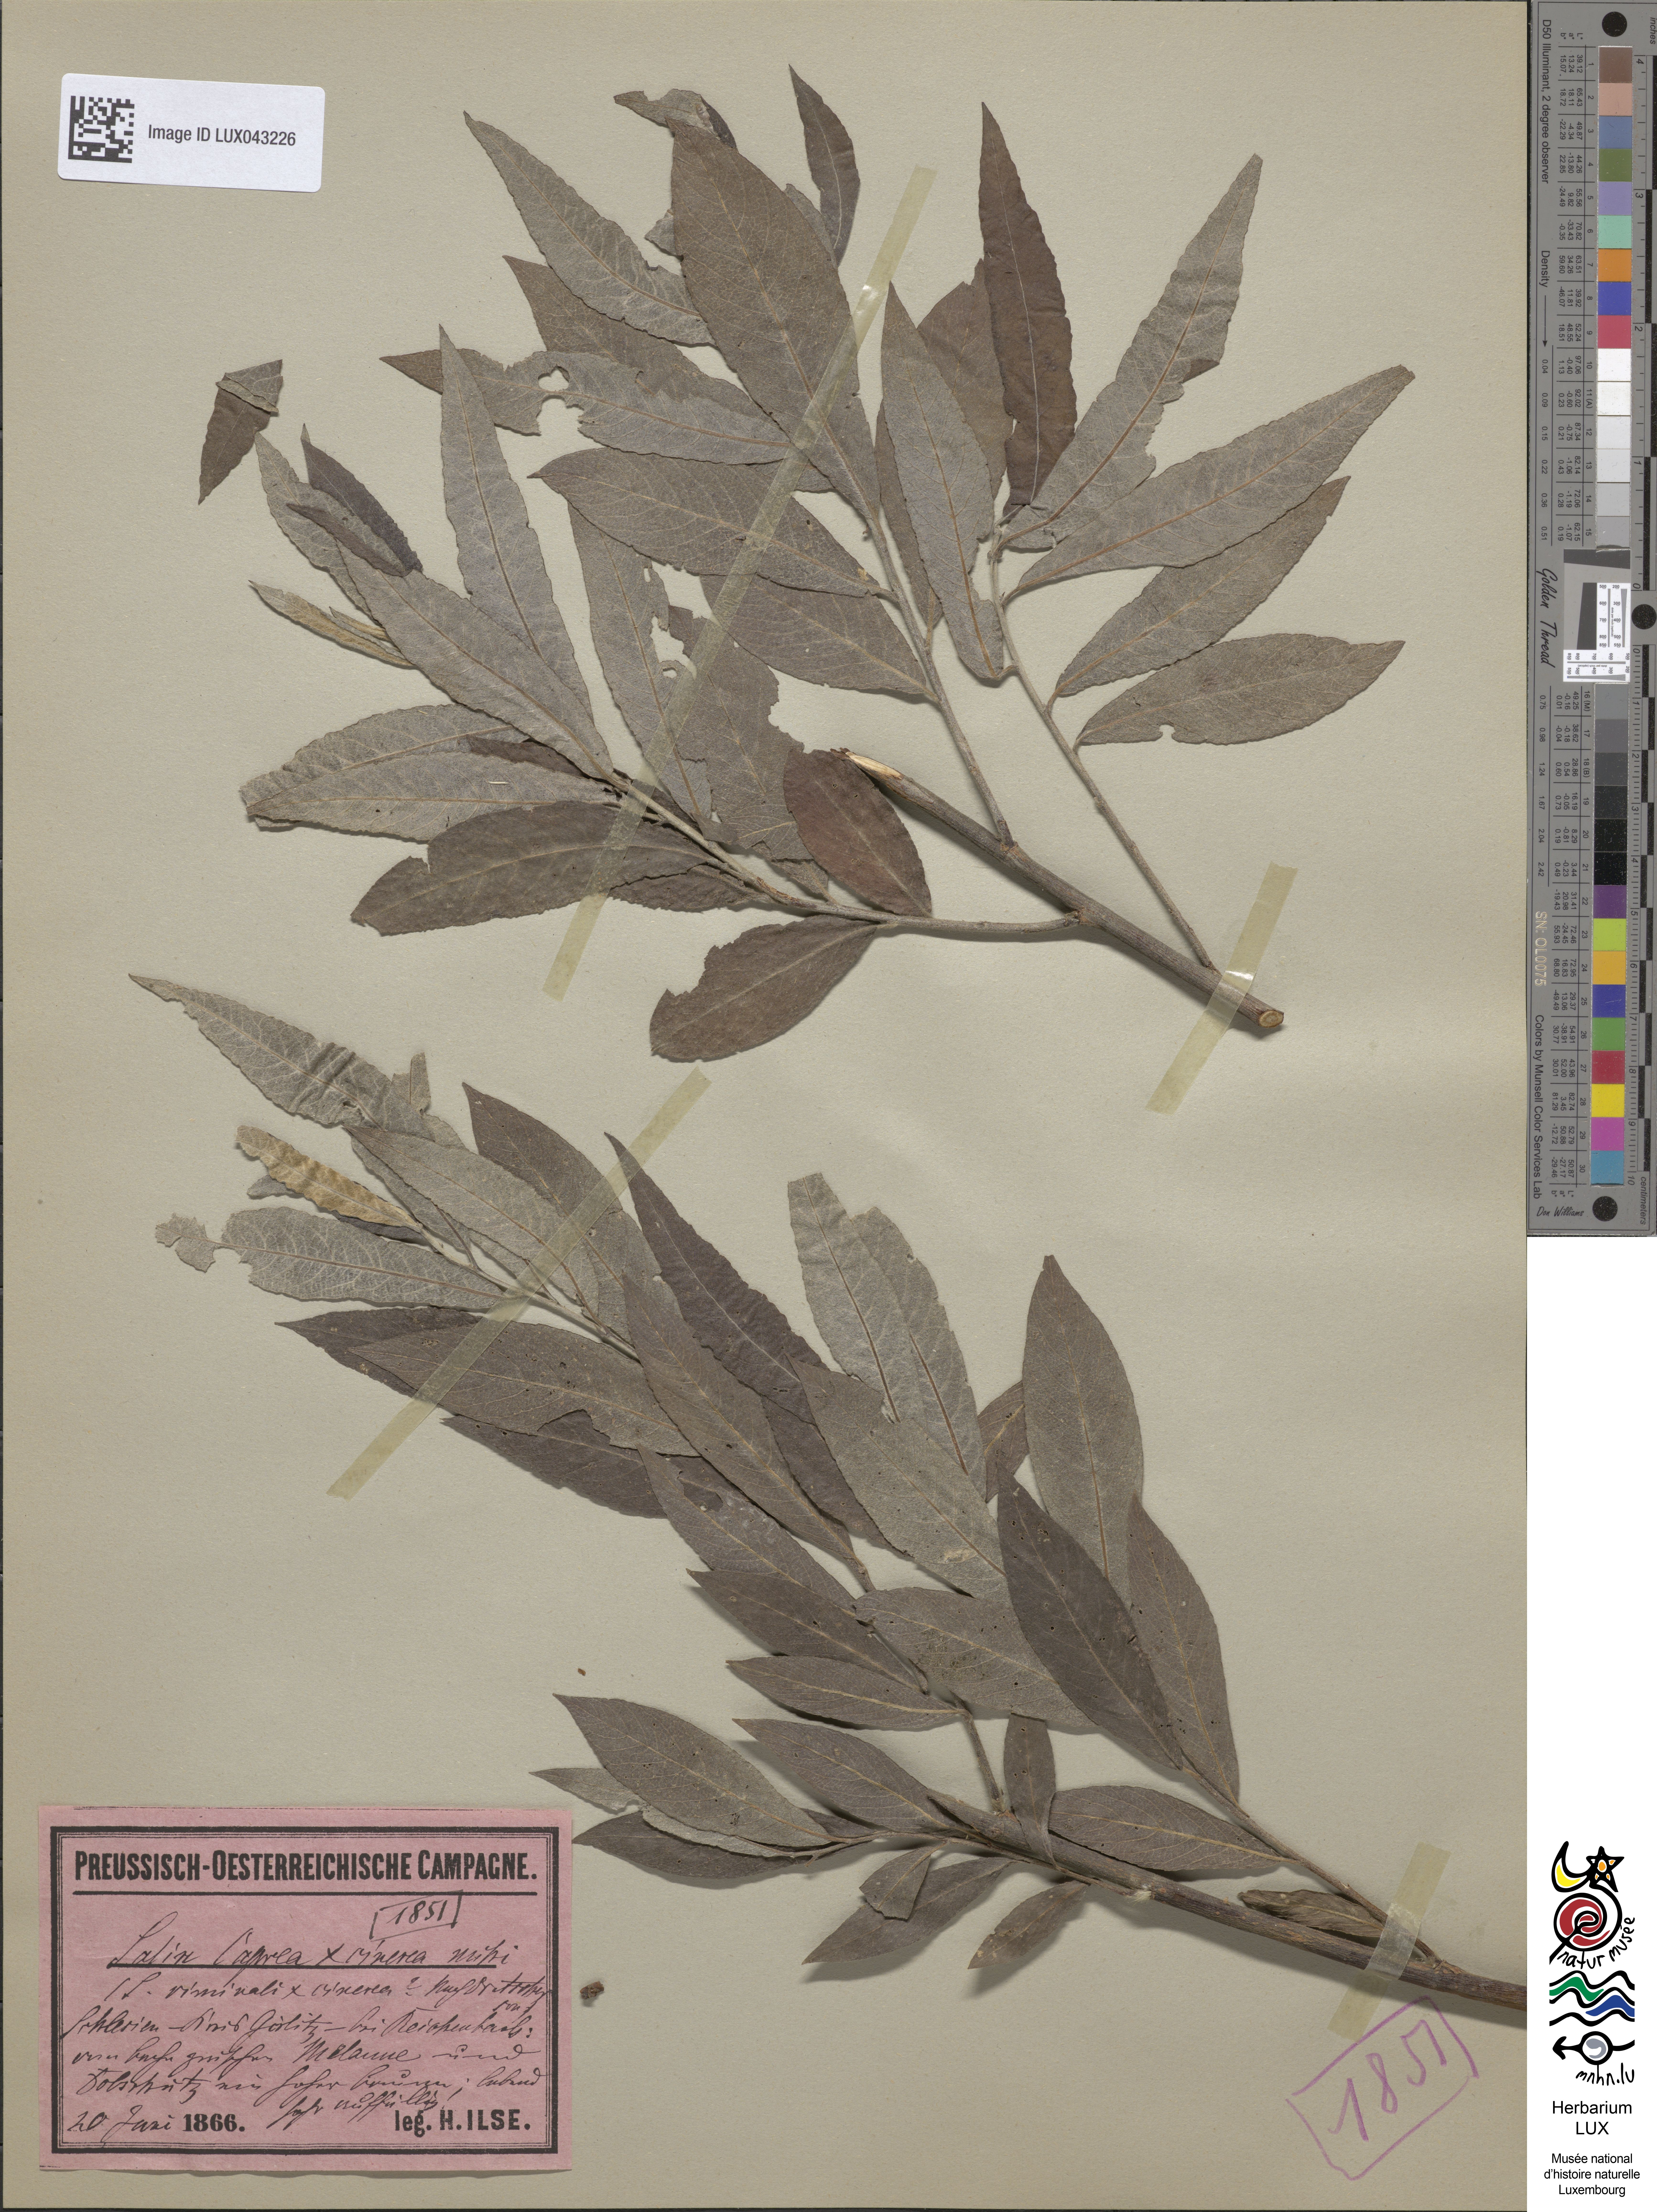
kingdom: Plantae
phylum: Tracheophyta
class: Magnoliopsida
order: Malpighiales
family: Salicaceae
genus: Salix
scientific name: Salix stipularis
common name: Eared osier
